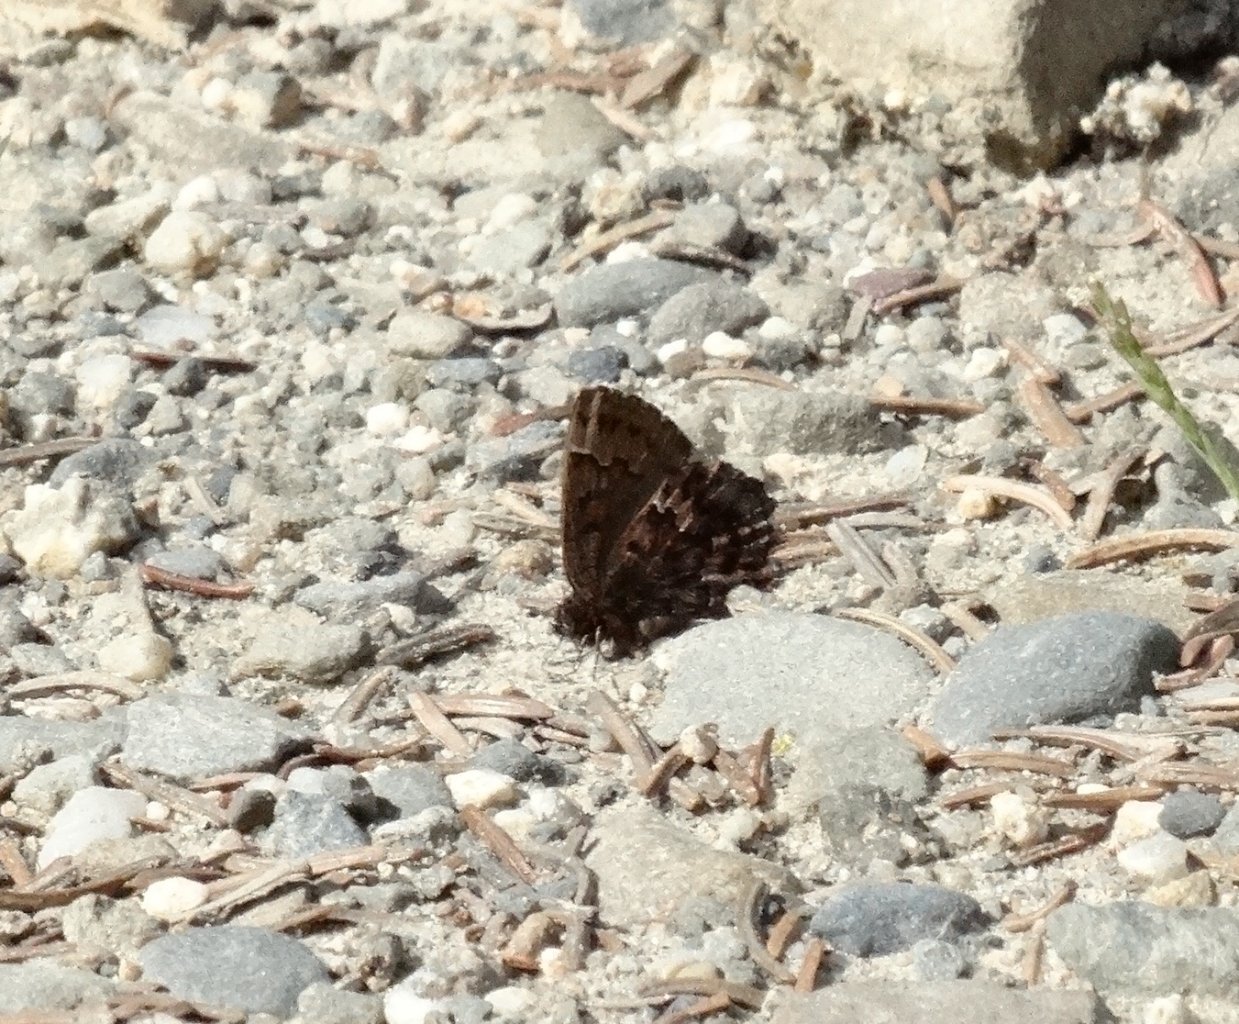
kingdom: Animalia
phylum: Arthropoda
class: Insecta
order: Lepidoptera
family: Lycaenidae
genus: Incisalia
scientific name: Incisalia niphon
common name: Eastern Pine Elfin
